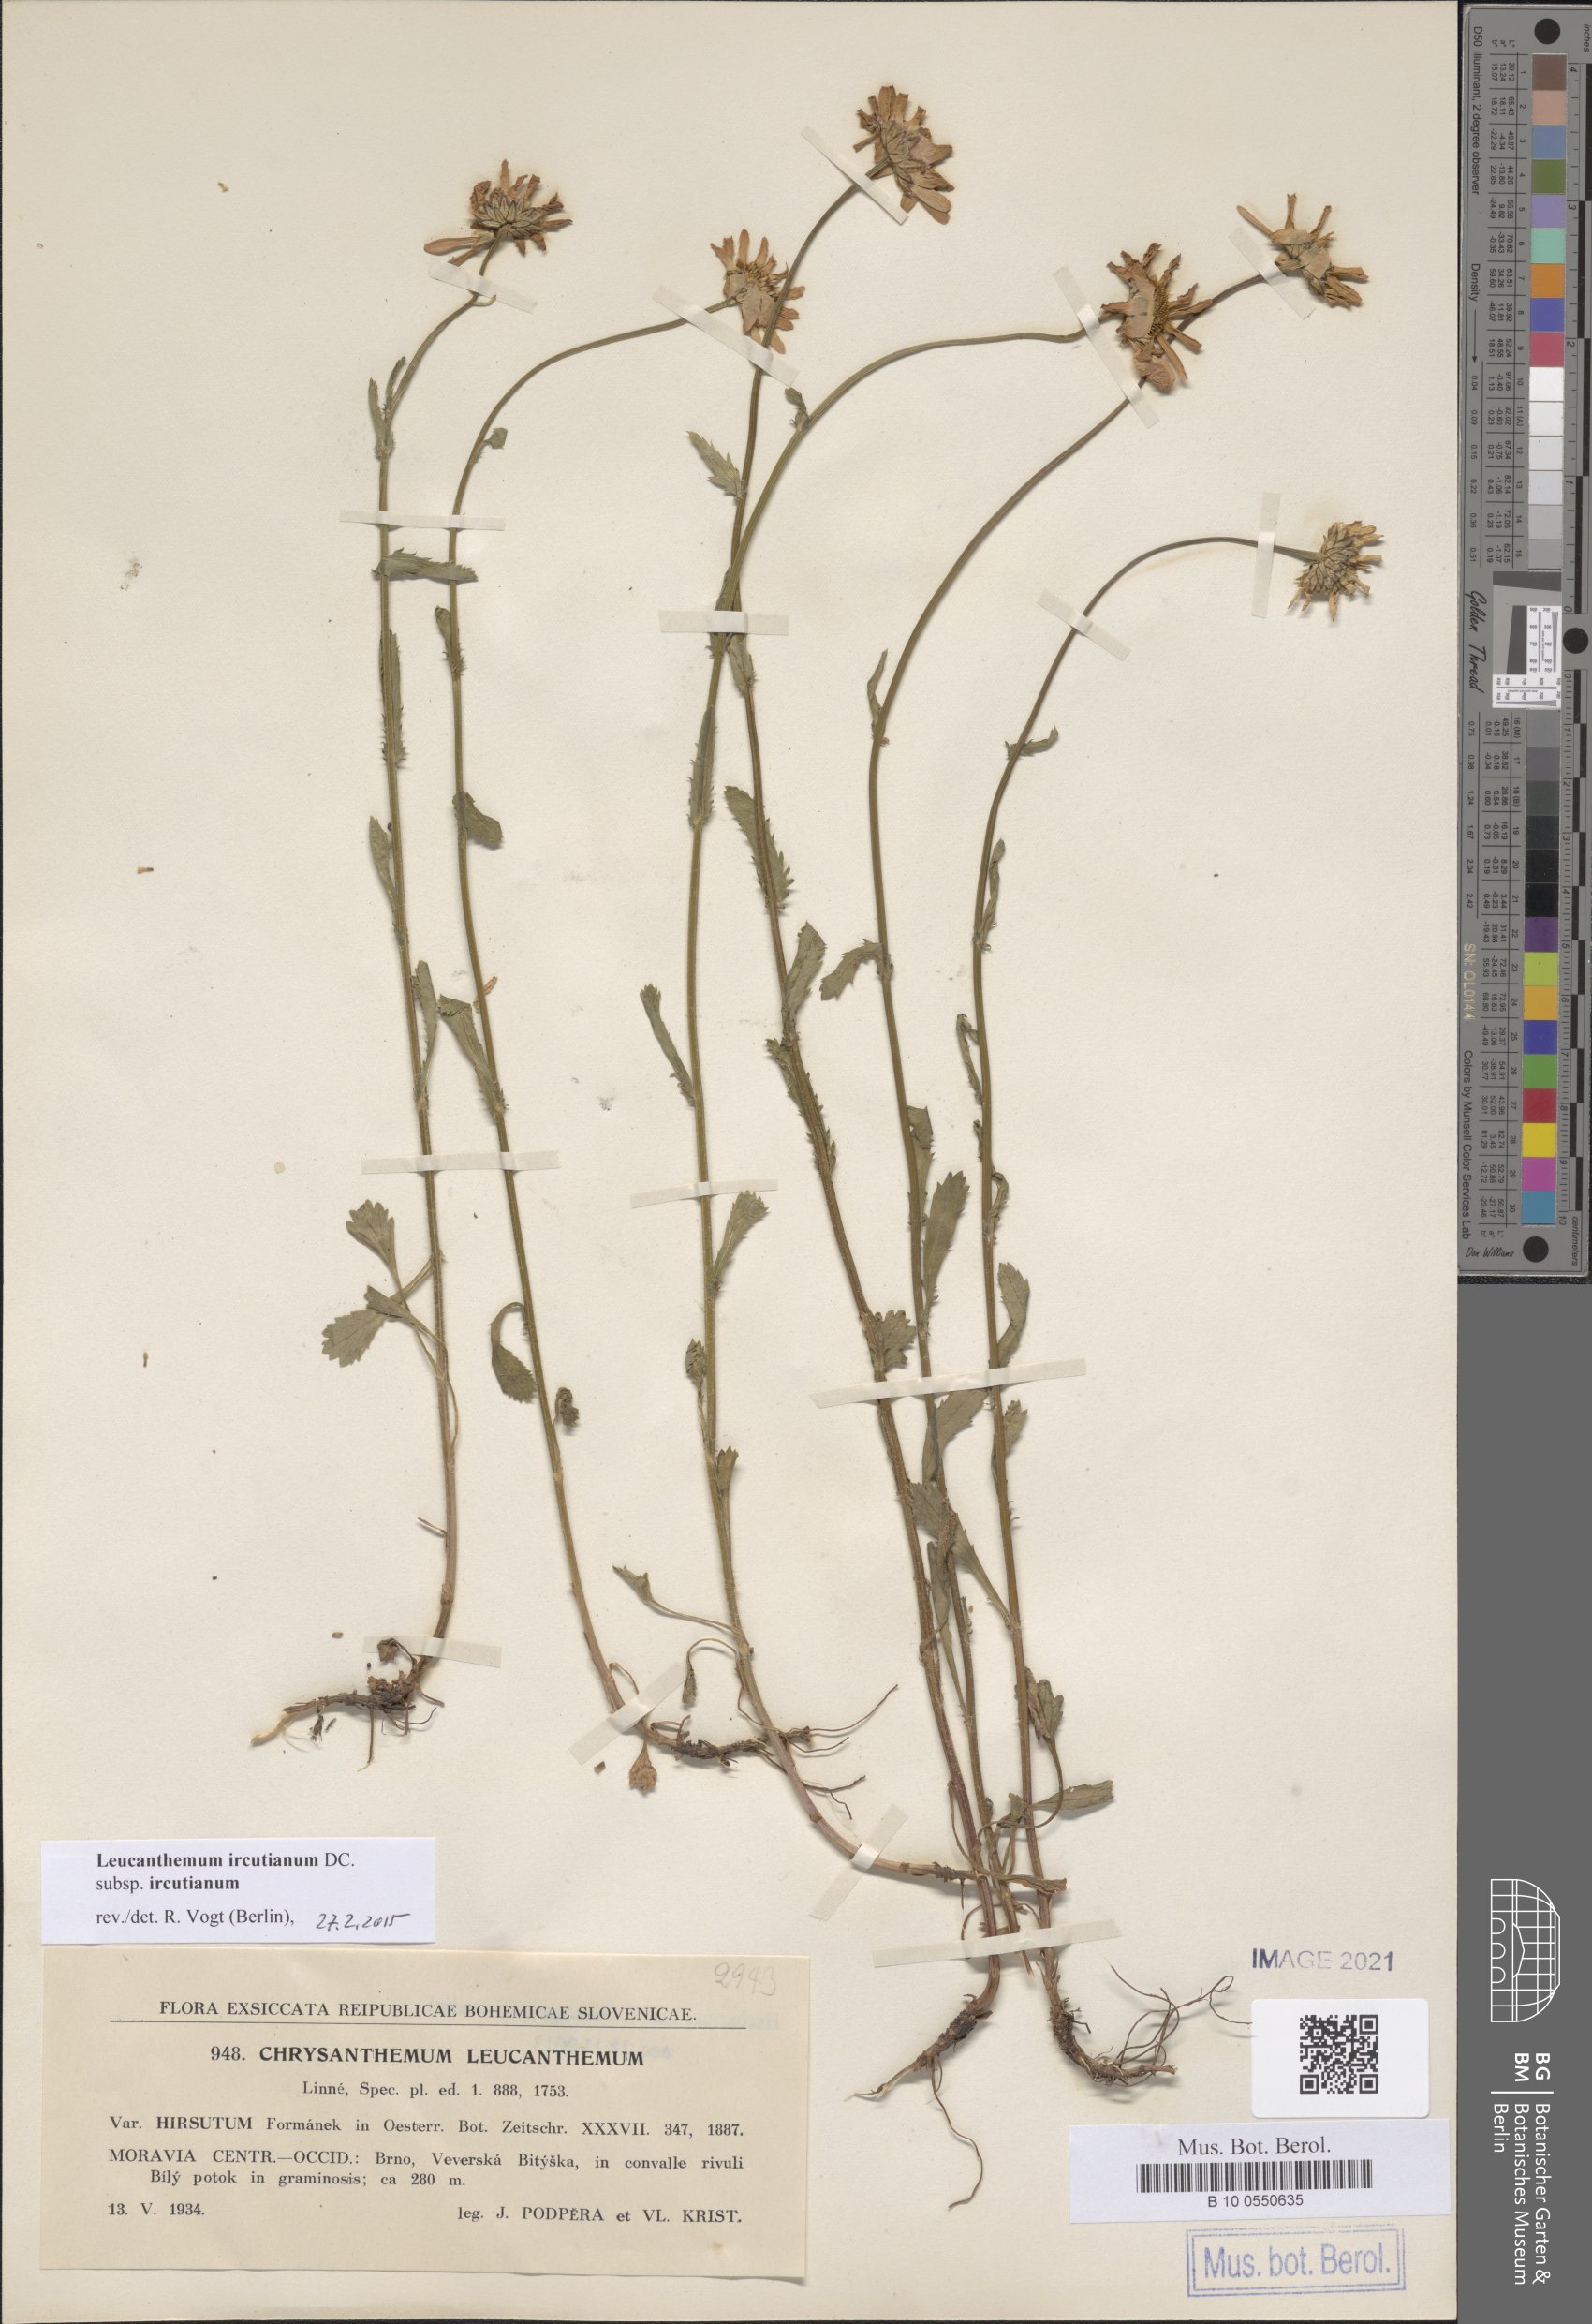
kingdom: Plantae
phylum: Tracheophyta
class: Magnoliopsida
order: Asterales
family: Asteraceae
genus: Leucanthemum
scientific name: Leucanthemum ircutianum
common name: Daisy
